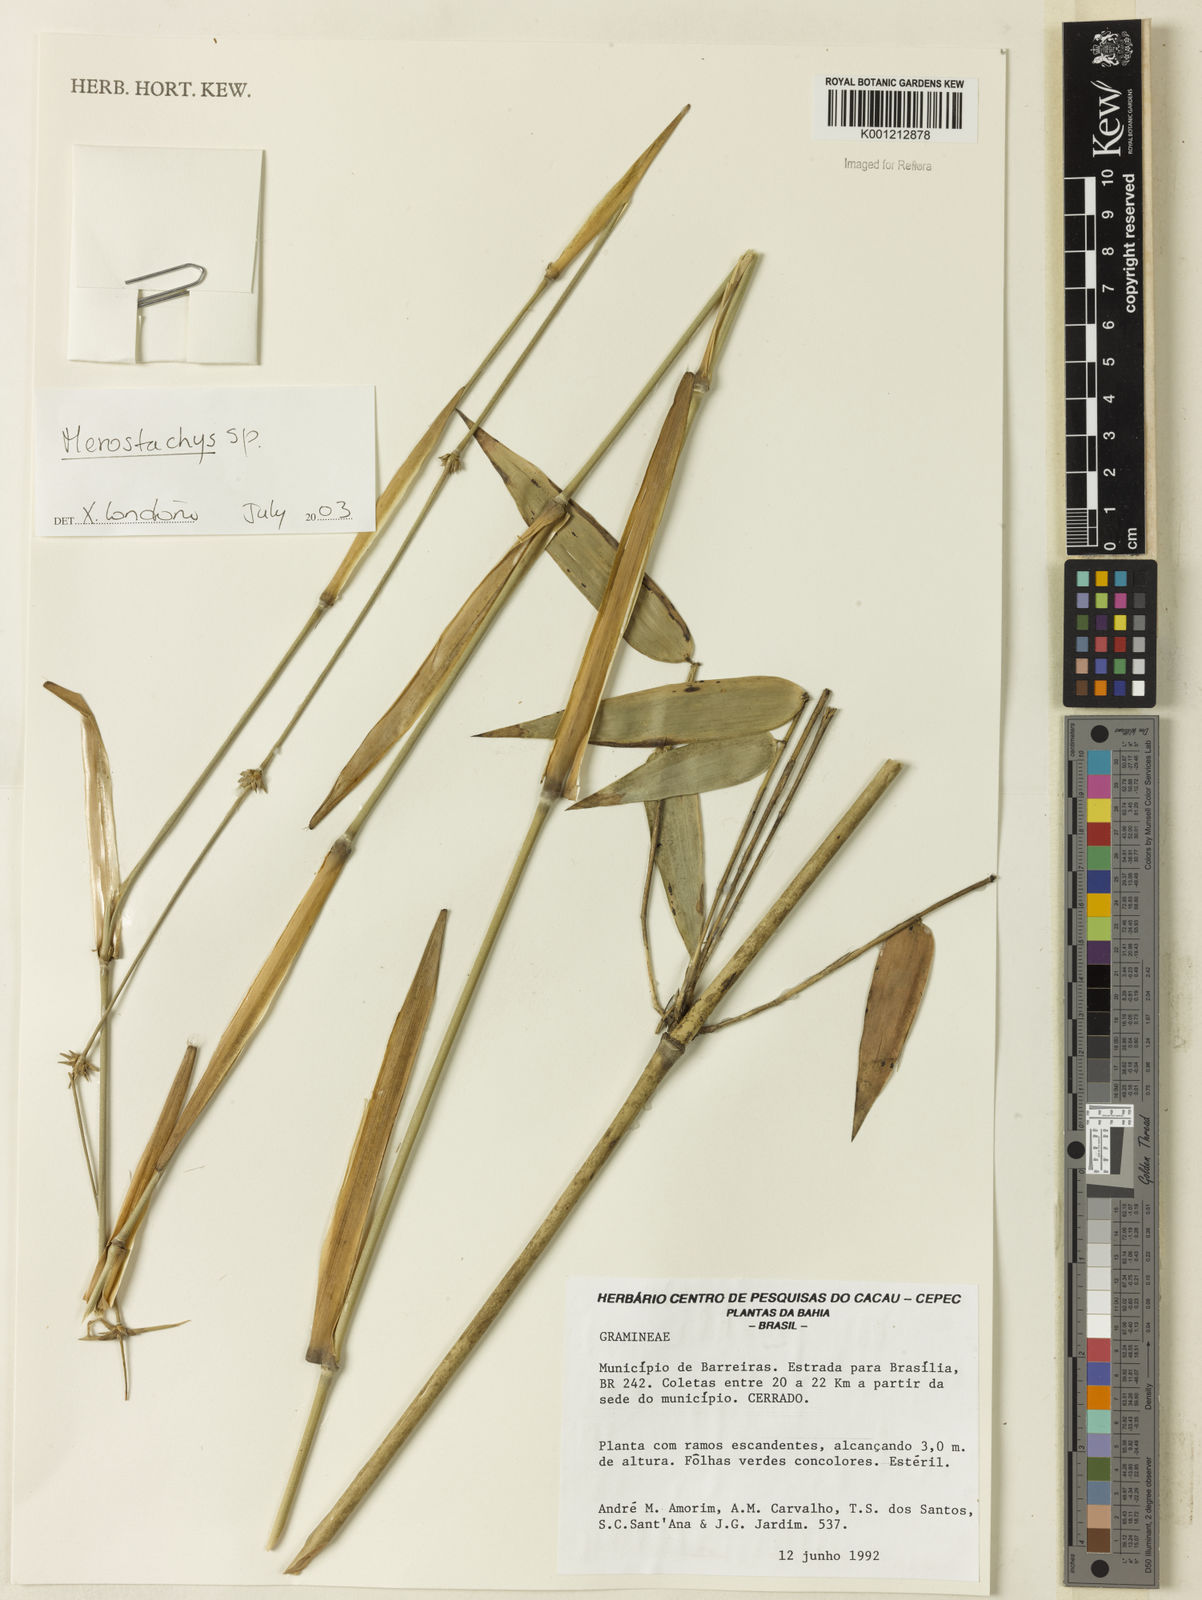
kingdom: Plantae
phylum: Tracheophyta
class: Liliopsida
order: Poales
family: Poaceae
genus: Merostachys
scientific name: Merostachys
